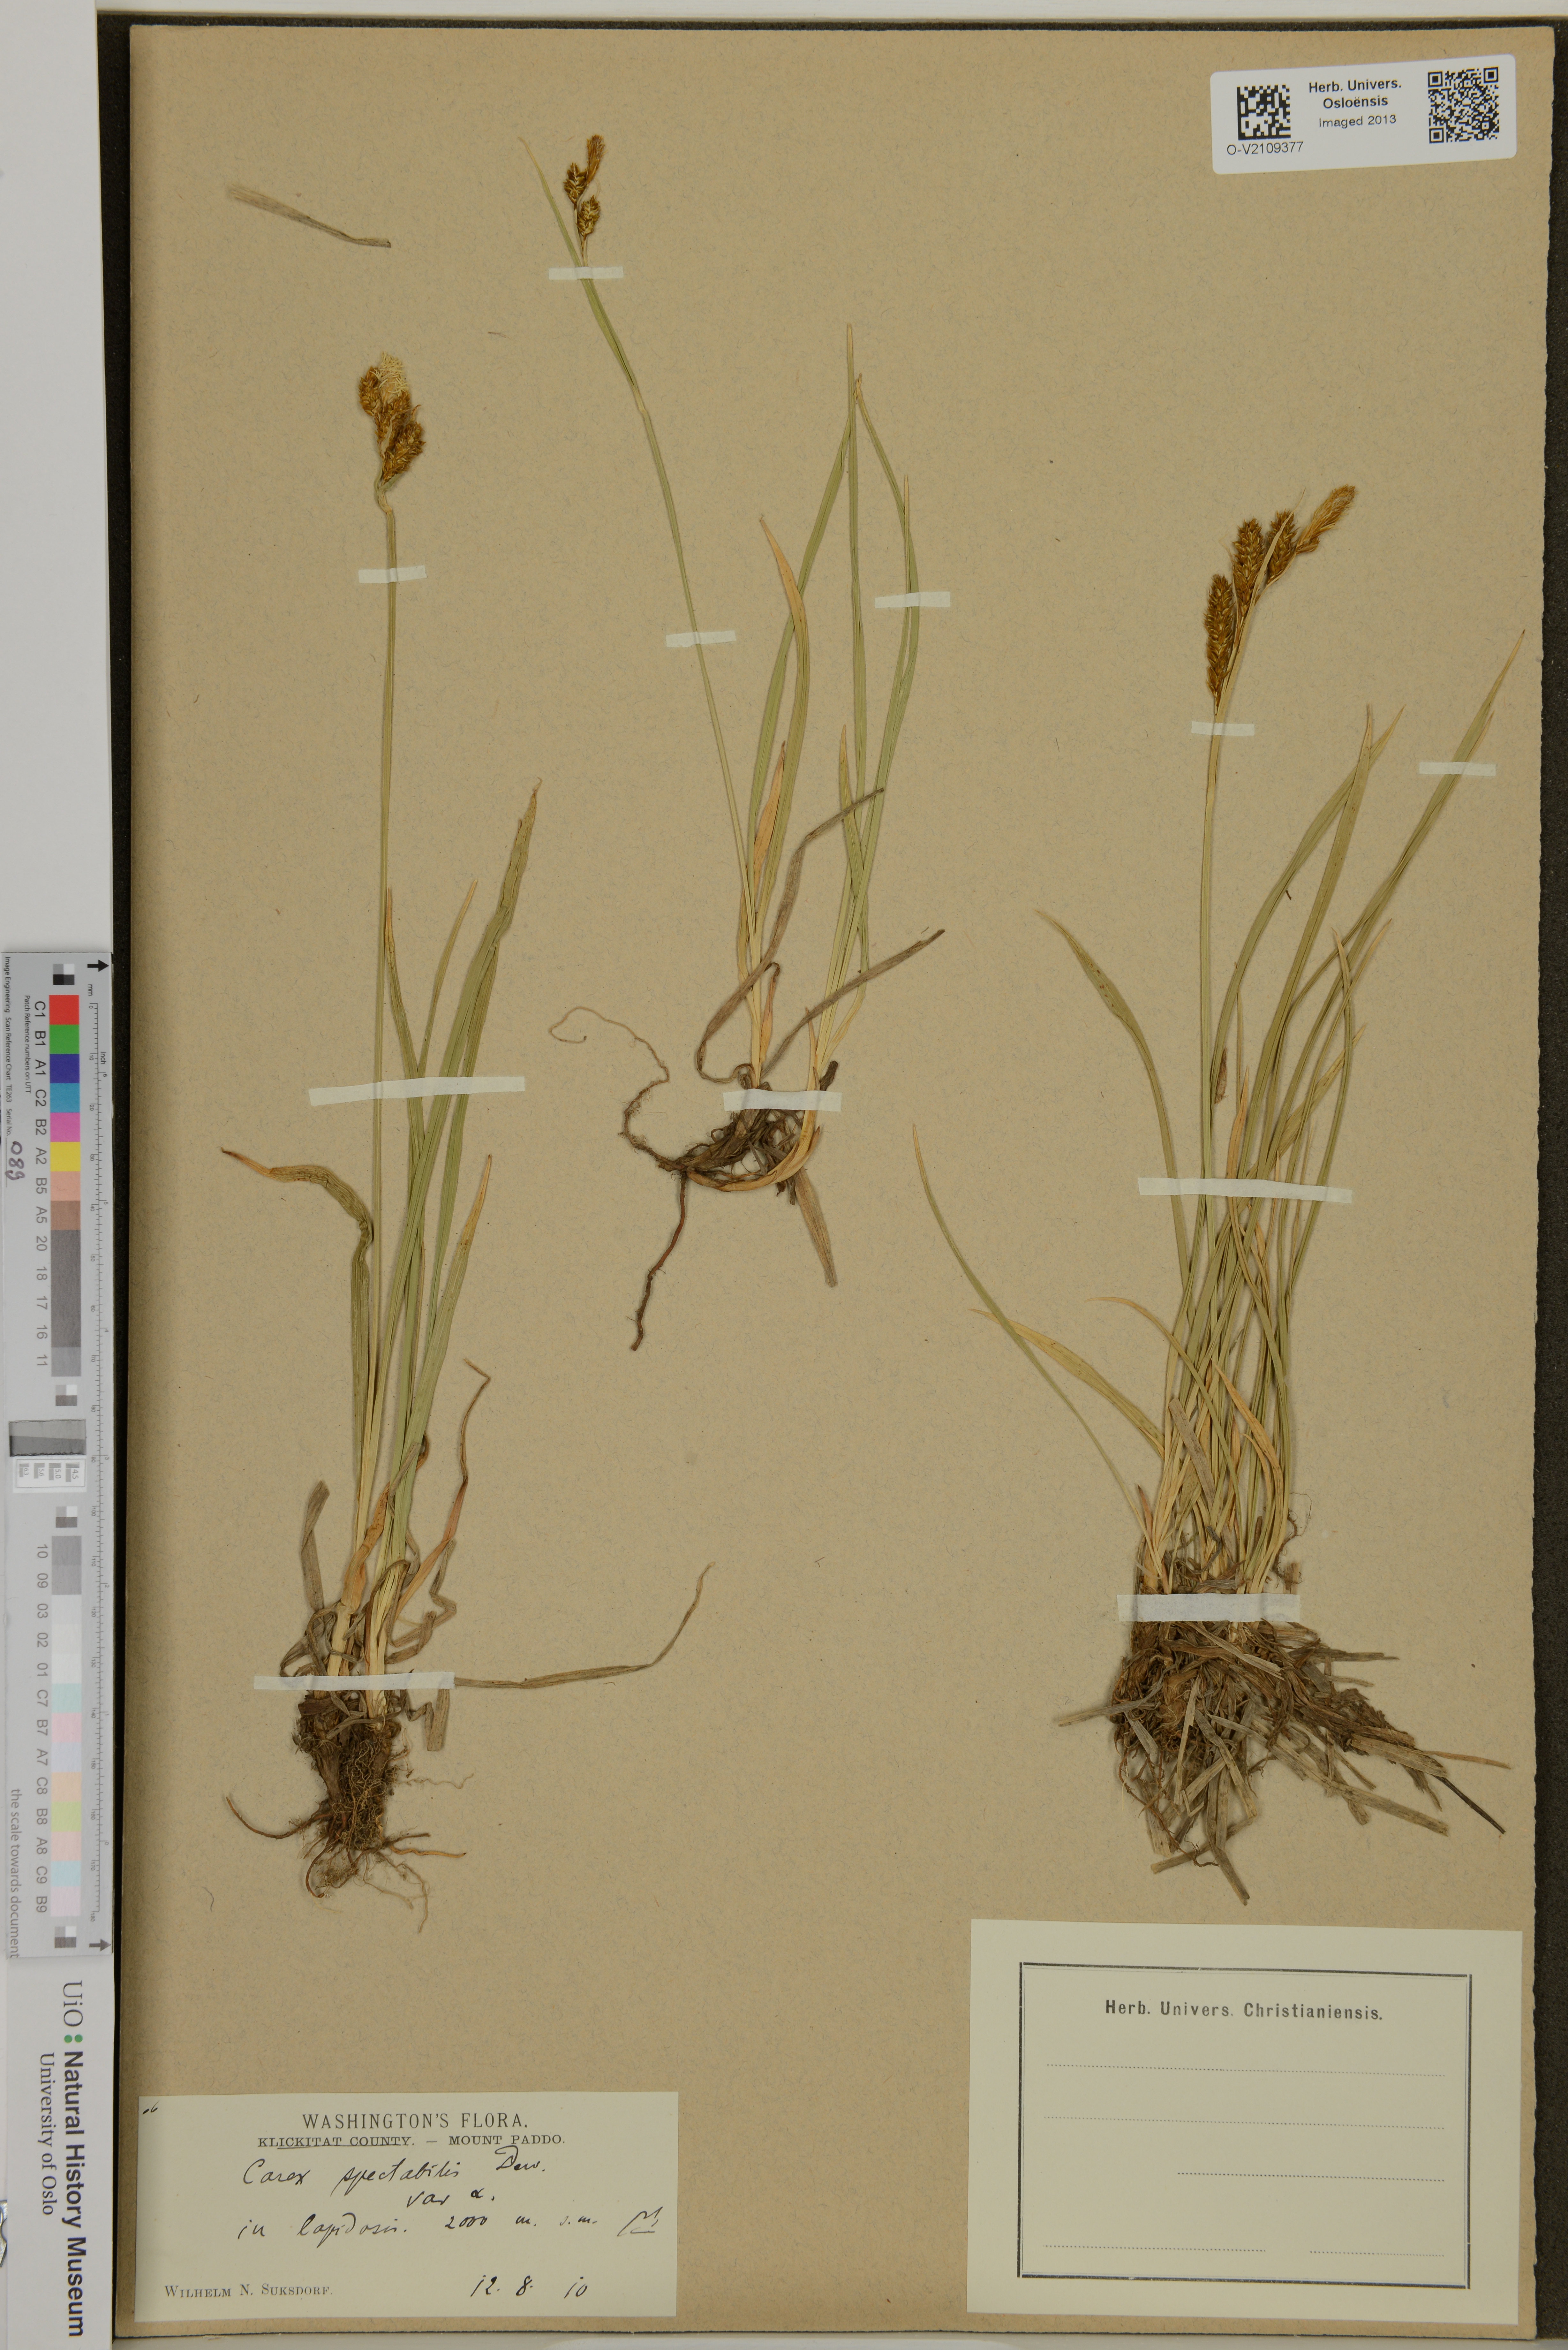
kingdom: Plantae
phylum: Tracheophyta
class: Liliopsida
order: Poales
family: Cyperaceae
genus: Carex
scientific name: Carex spectabilis
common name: Northwestern showy sedge
